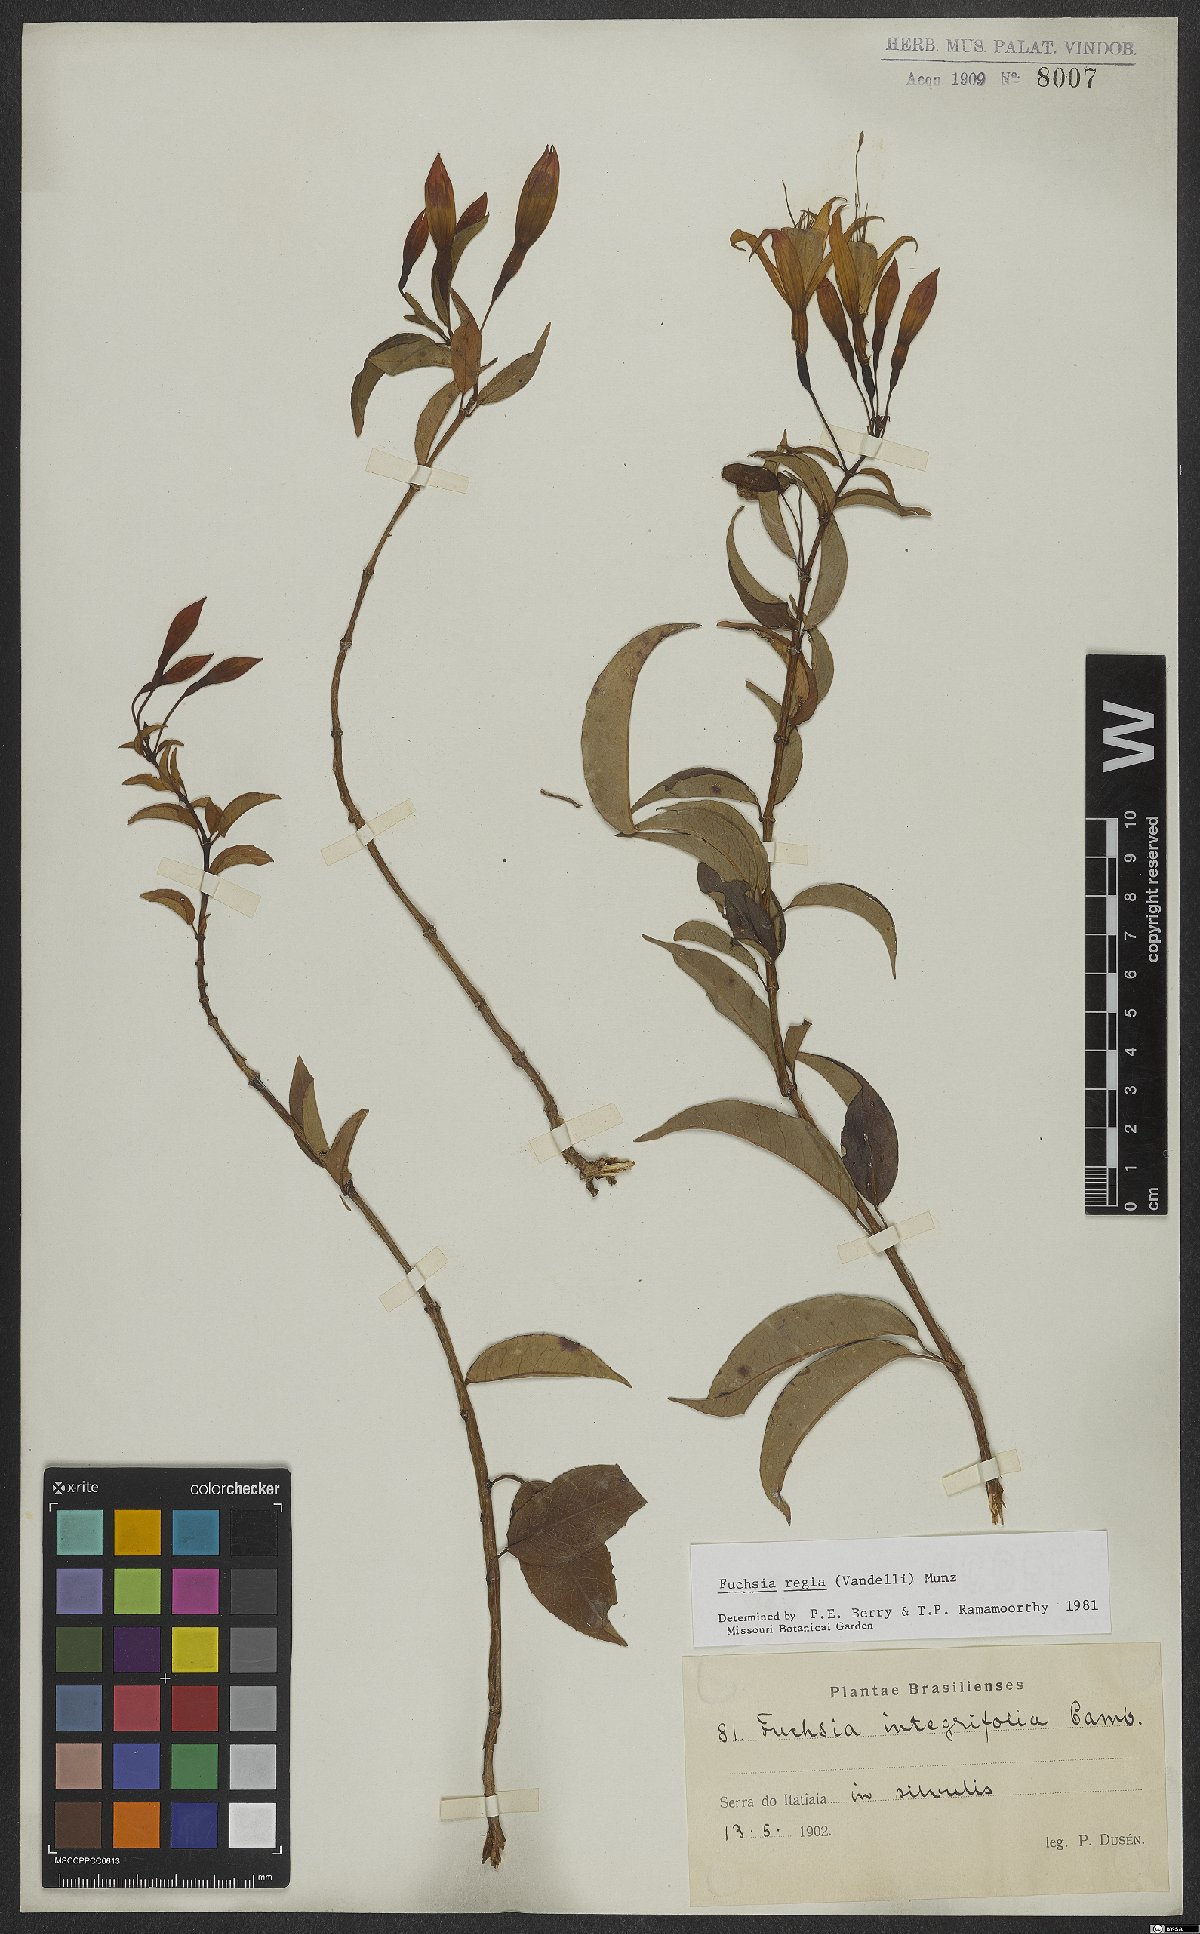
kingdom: Plantae
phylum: Tracheophyta
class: Magnoliopsida
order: Myrtales
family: Onagraceae
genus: Fuchsia
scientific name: Fuchsia regia
